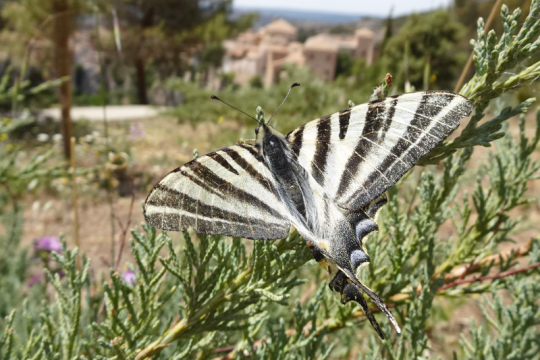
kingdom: Animalia
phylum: Arthropoda
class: Insecta
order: Lepidoptera
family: Papilionidae
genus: Iphiclides
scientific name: Iphiclides feisthamelii
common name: Iberian Scarce Swallowtail
